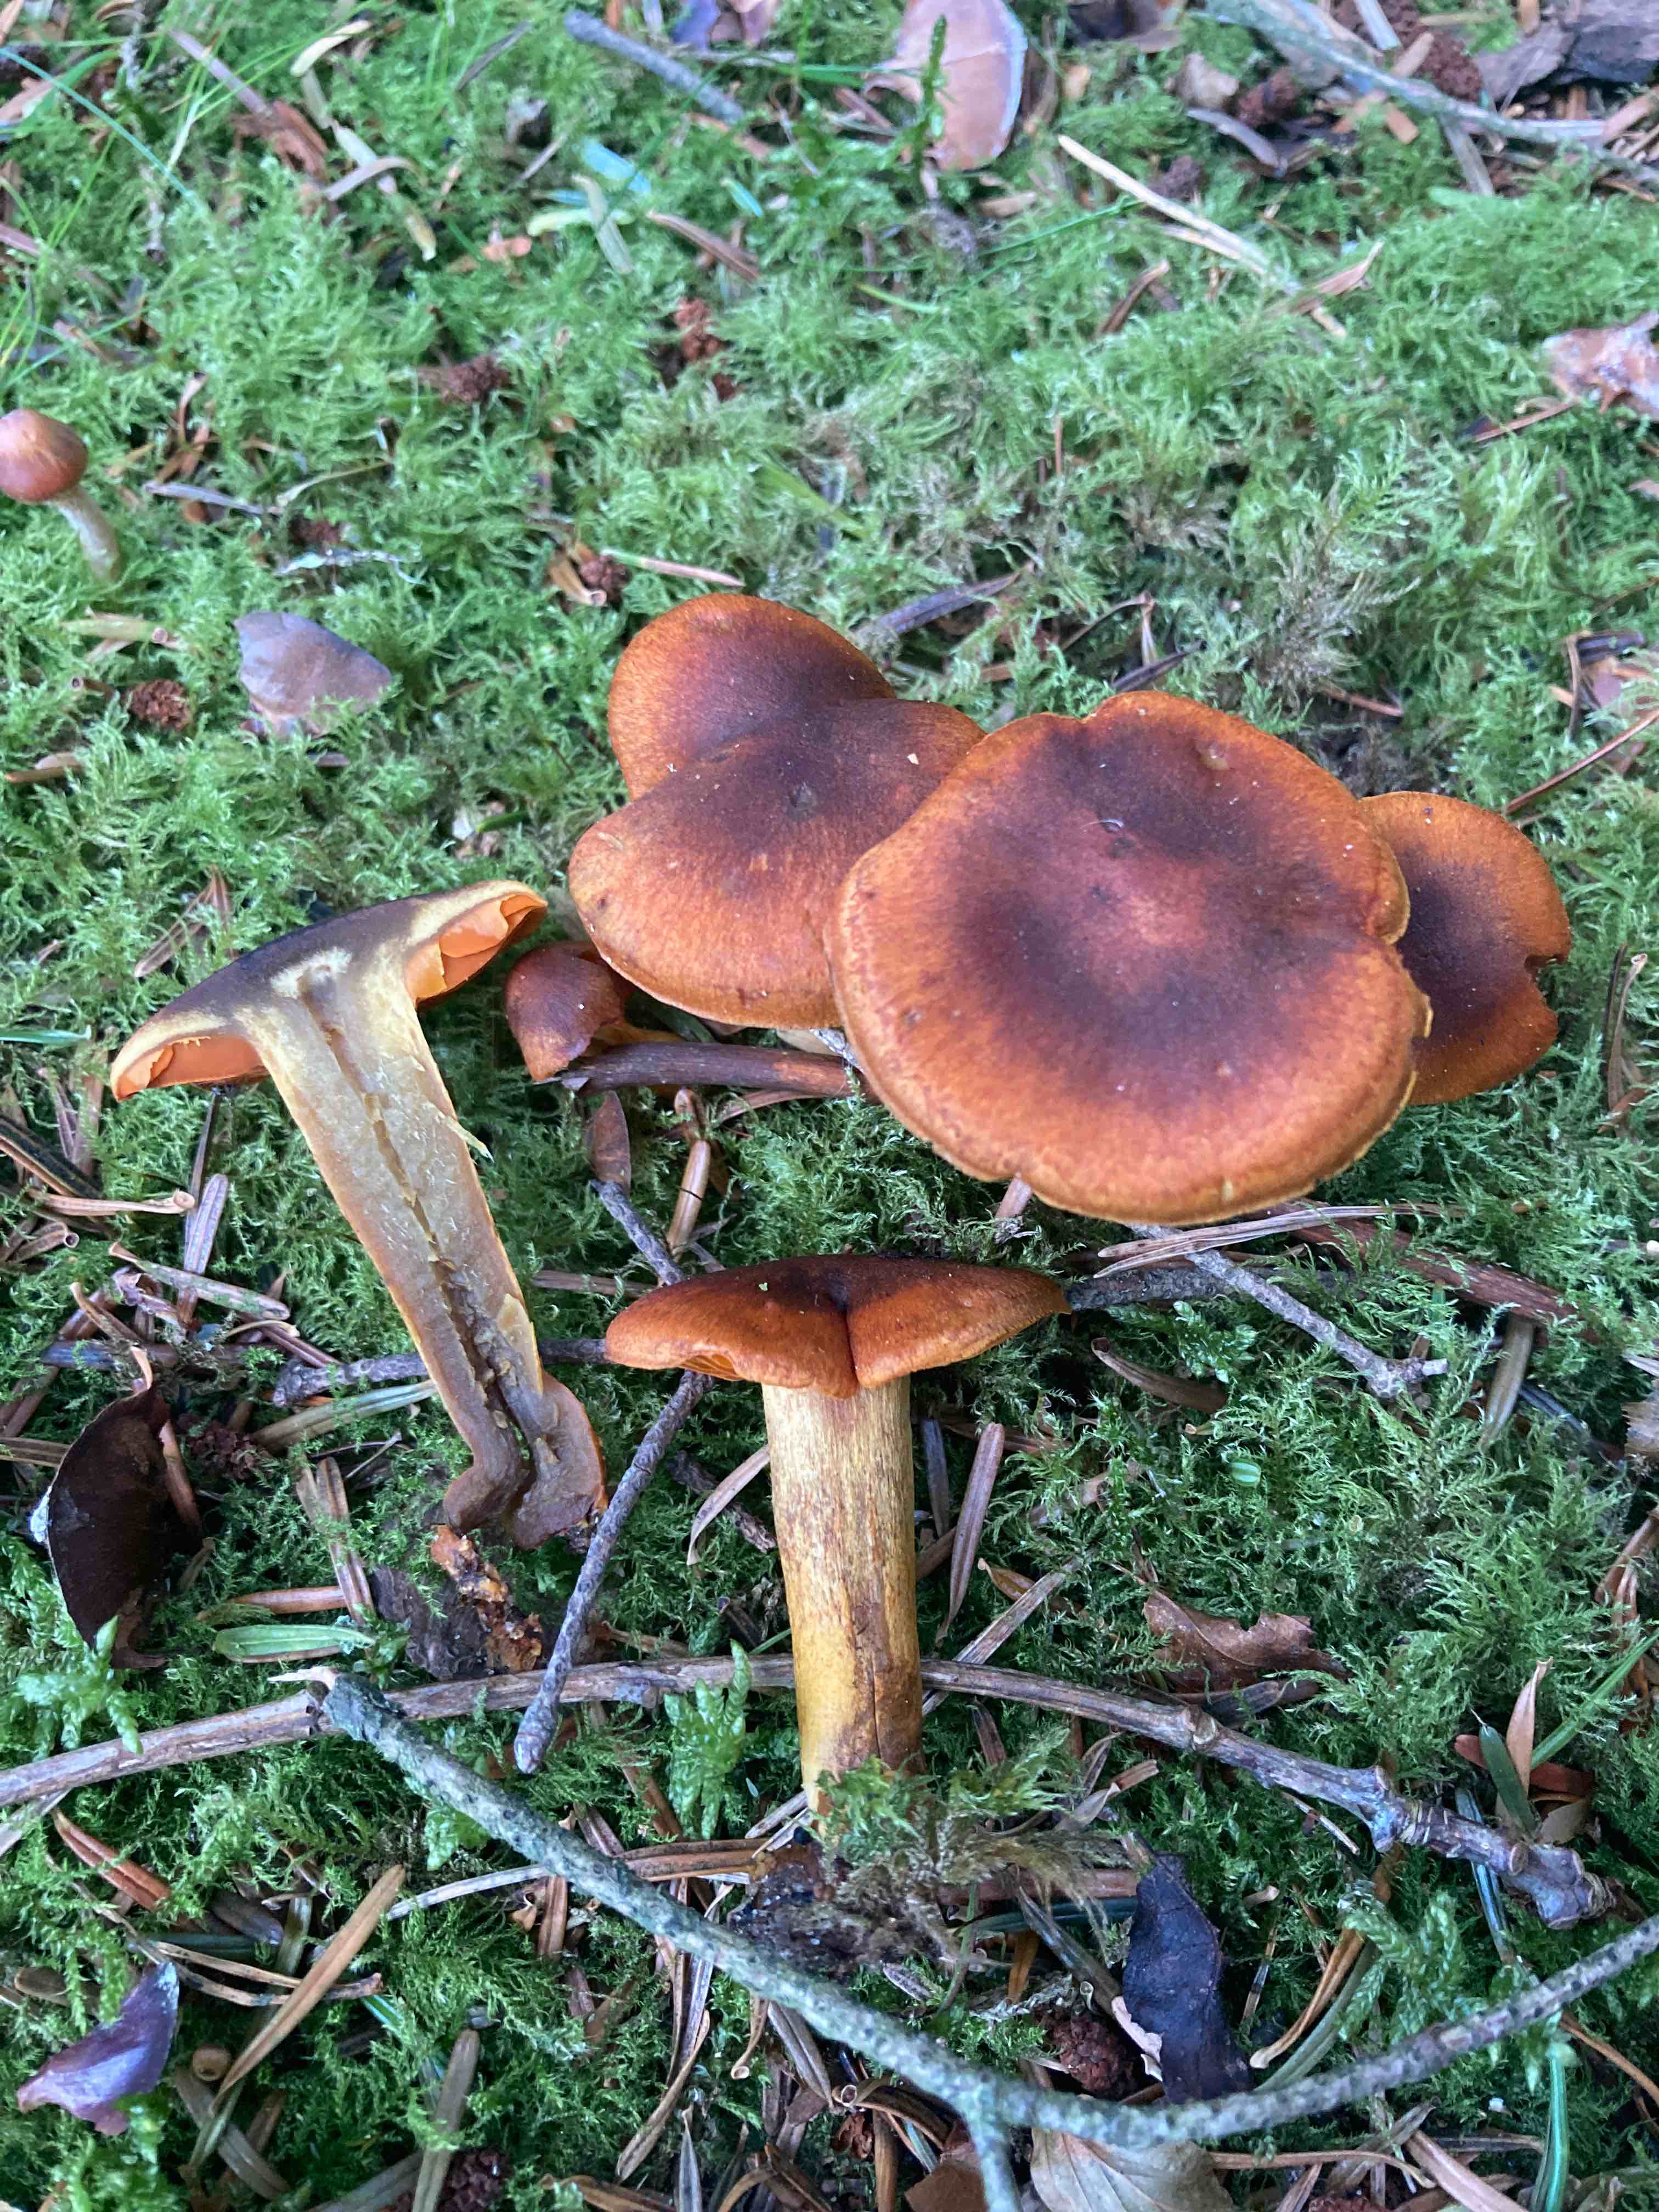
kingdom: Fungi
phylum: Basidiomycota
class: Agaricomycetes
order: Agaricales
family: Cortinariaceae
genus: Cortinarius
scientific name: Cortinarius malicorius
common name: grønkødet slørhat
